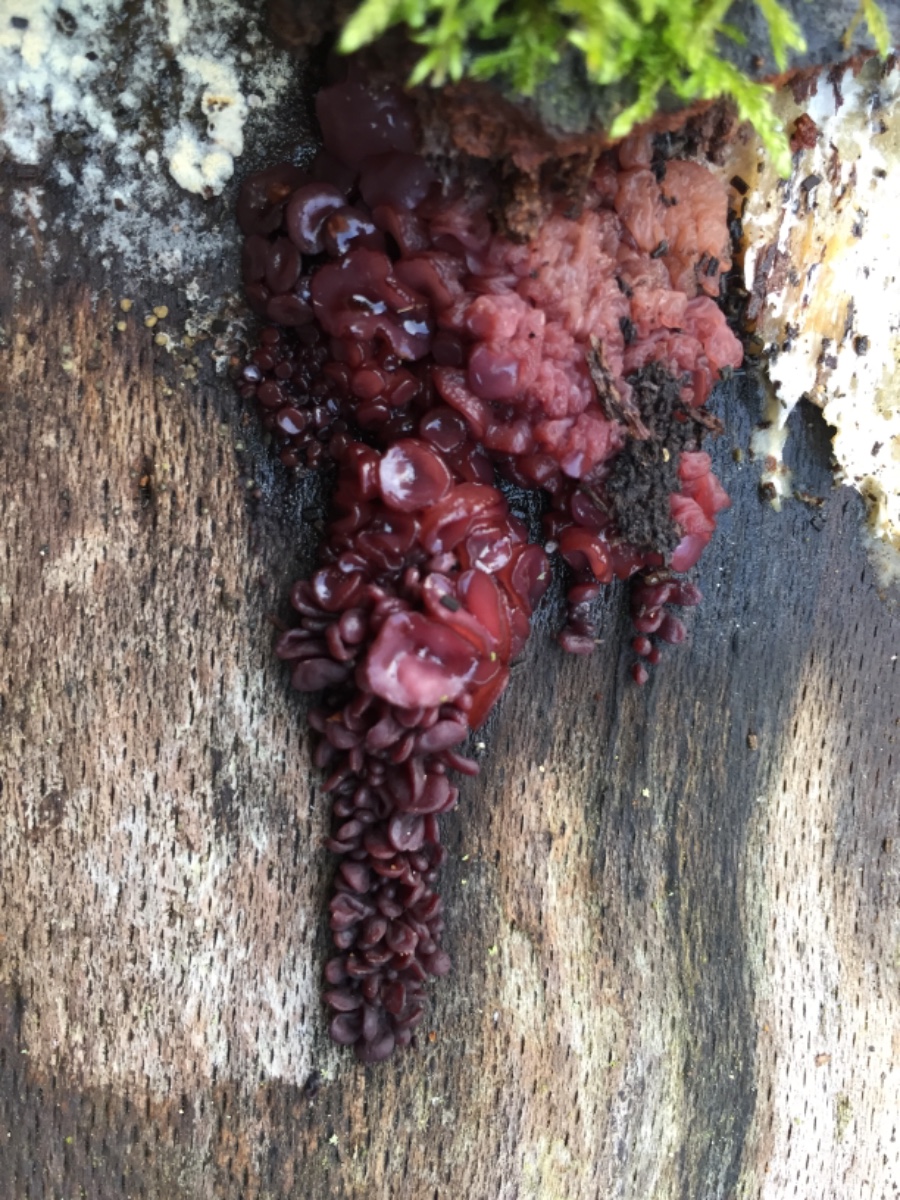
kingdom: Fungi
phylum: Ascomycota
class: Leotiomycetes
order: Helotiales
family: Gelatinodiscaceae
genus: Ascocoryne
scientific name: Ascocoryne sarcoides
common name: rødlilla sejskive
